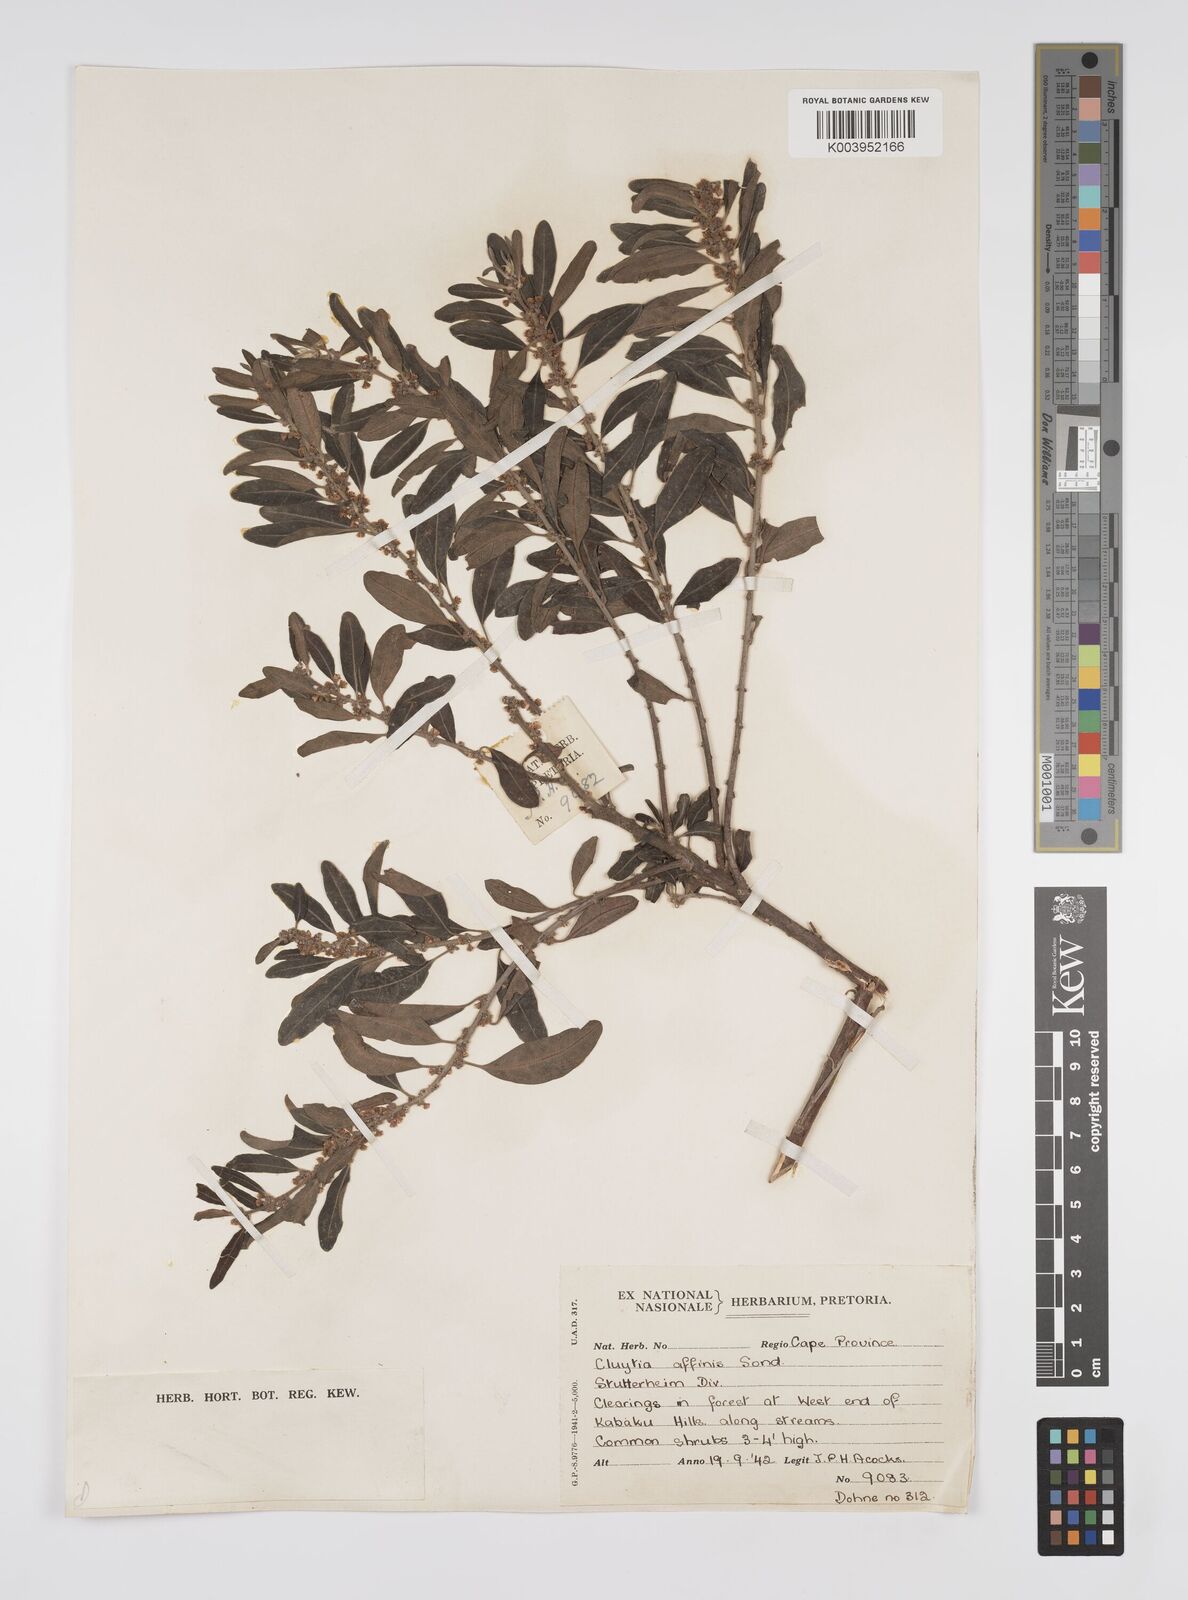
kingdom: Plantae
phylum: Tracheophyta
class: Magnoliopsida
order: Malpighiales
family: Peraceae
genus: Clutia
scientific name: Clutia affinis
